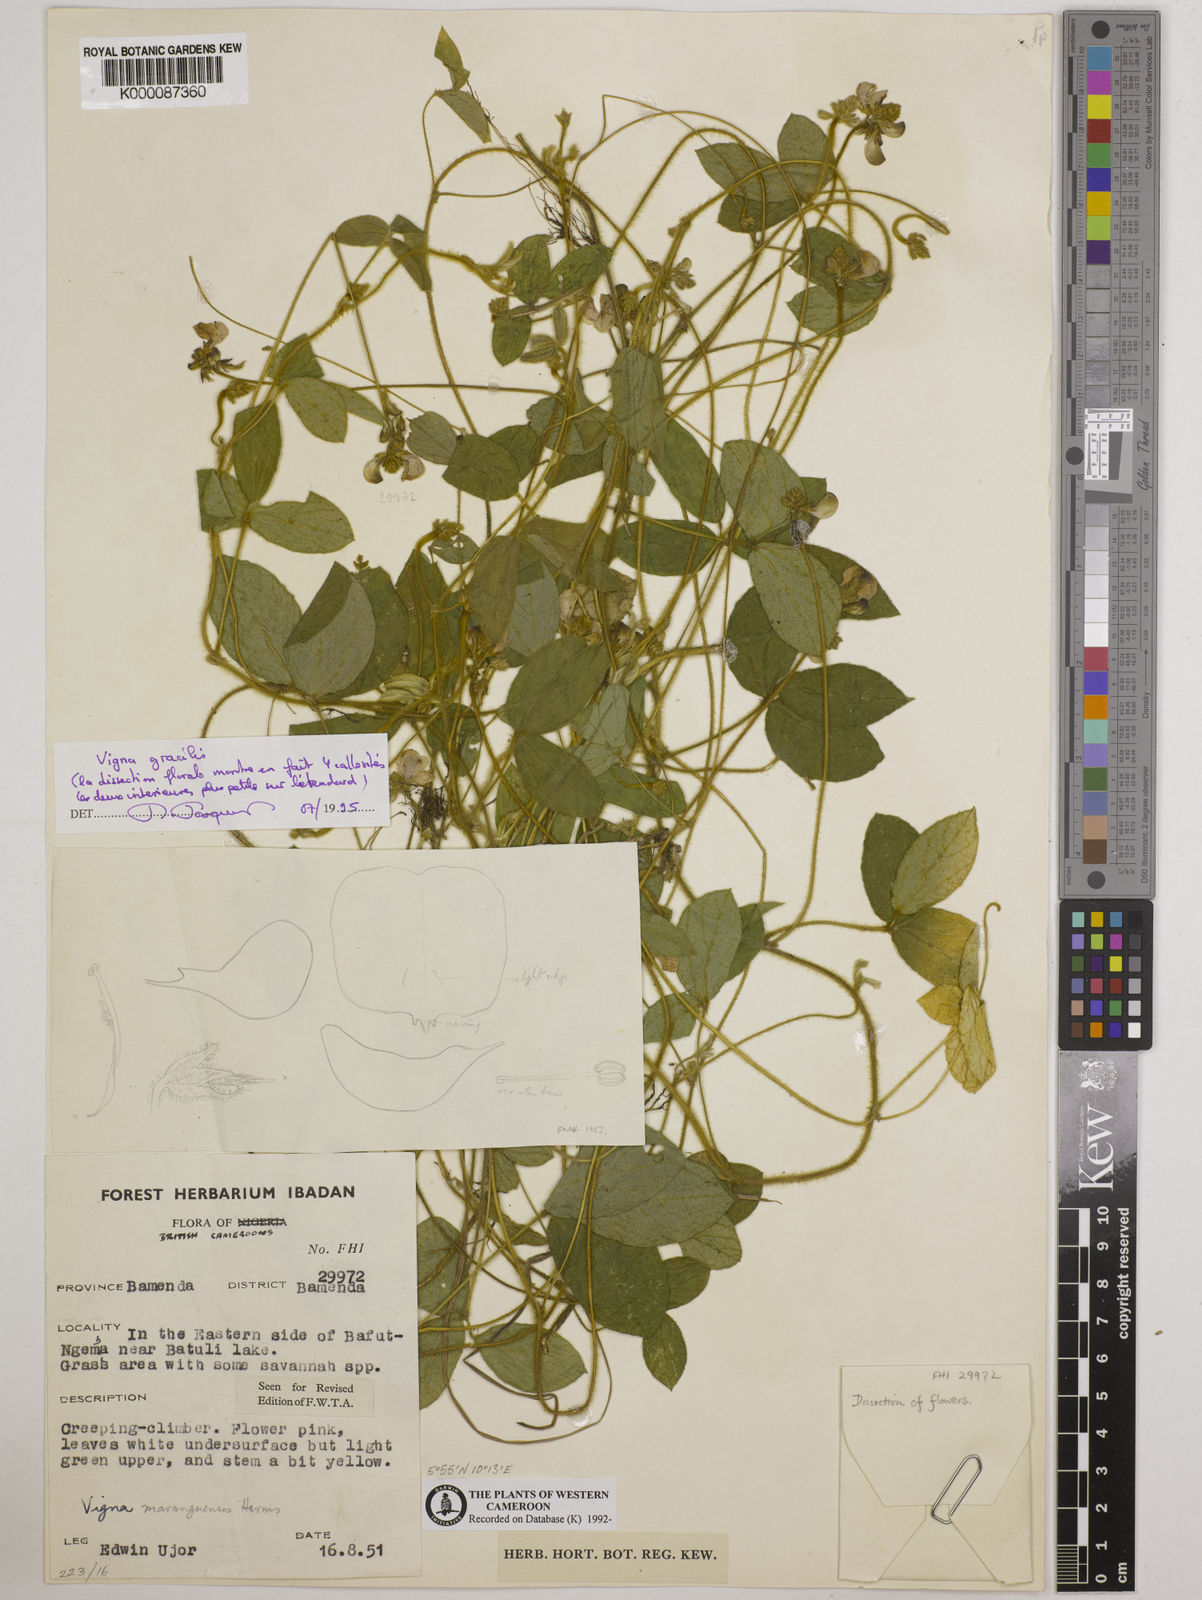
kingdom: Plantae
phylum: Tracheophyta
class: Magnoliopsida
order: Fabales
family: Fabaceae
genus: Vigna
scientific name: Vigna gracilis
